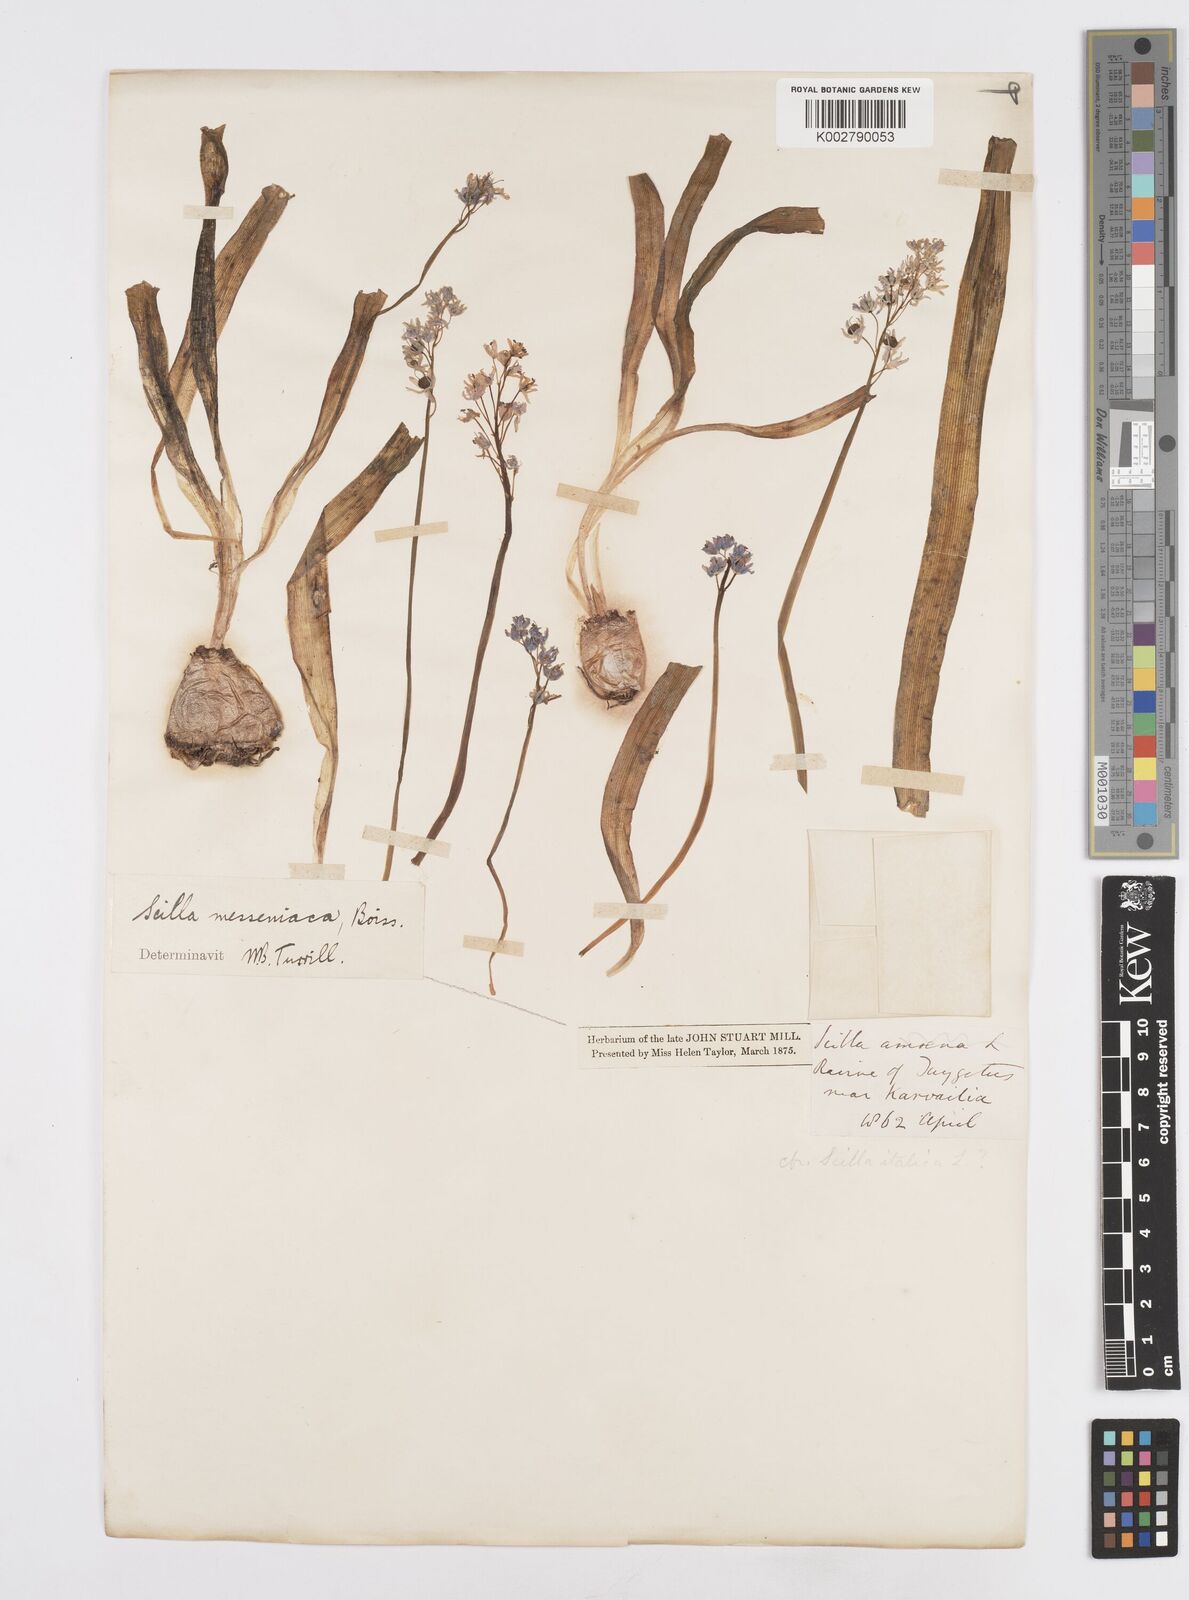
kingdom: Plantae
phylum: Tracheophyta
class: Liliopsida
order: Asparagales
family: Asparagaceae
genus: Scilla
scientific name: Scilla messeniaca
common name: Greek squill
